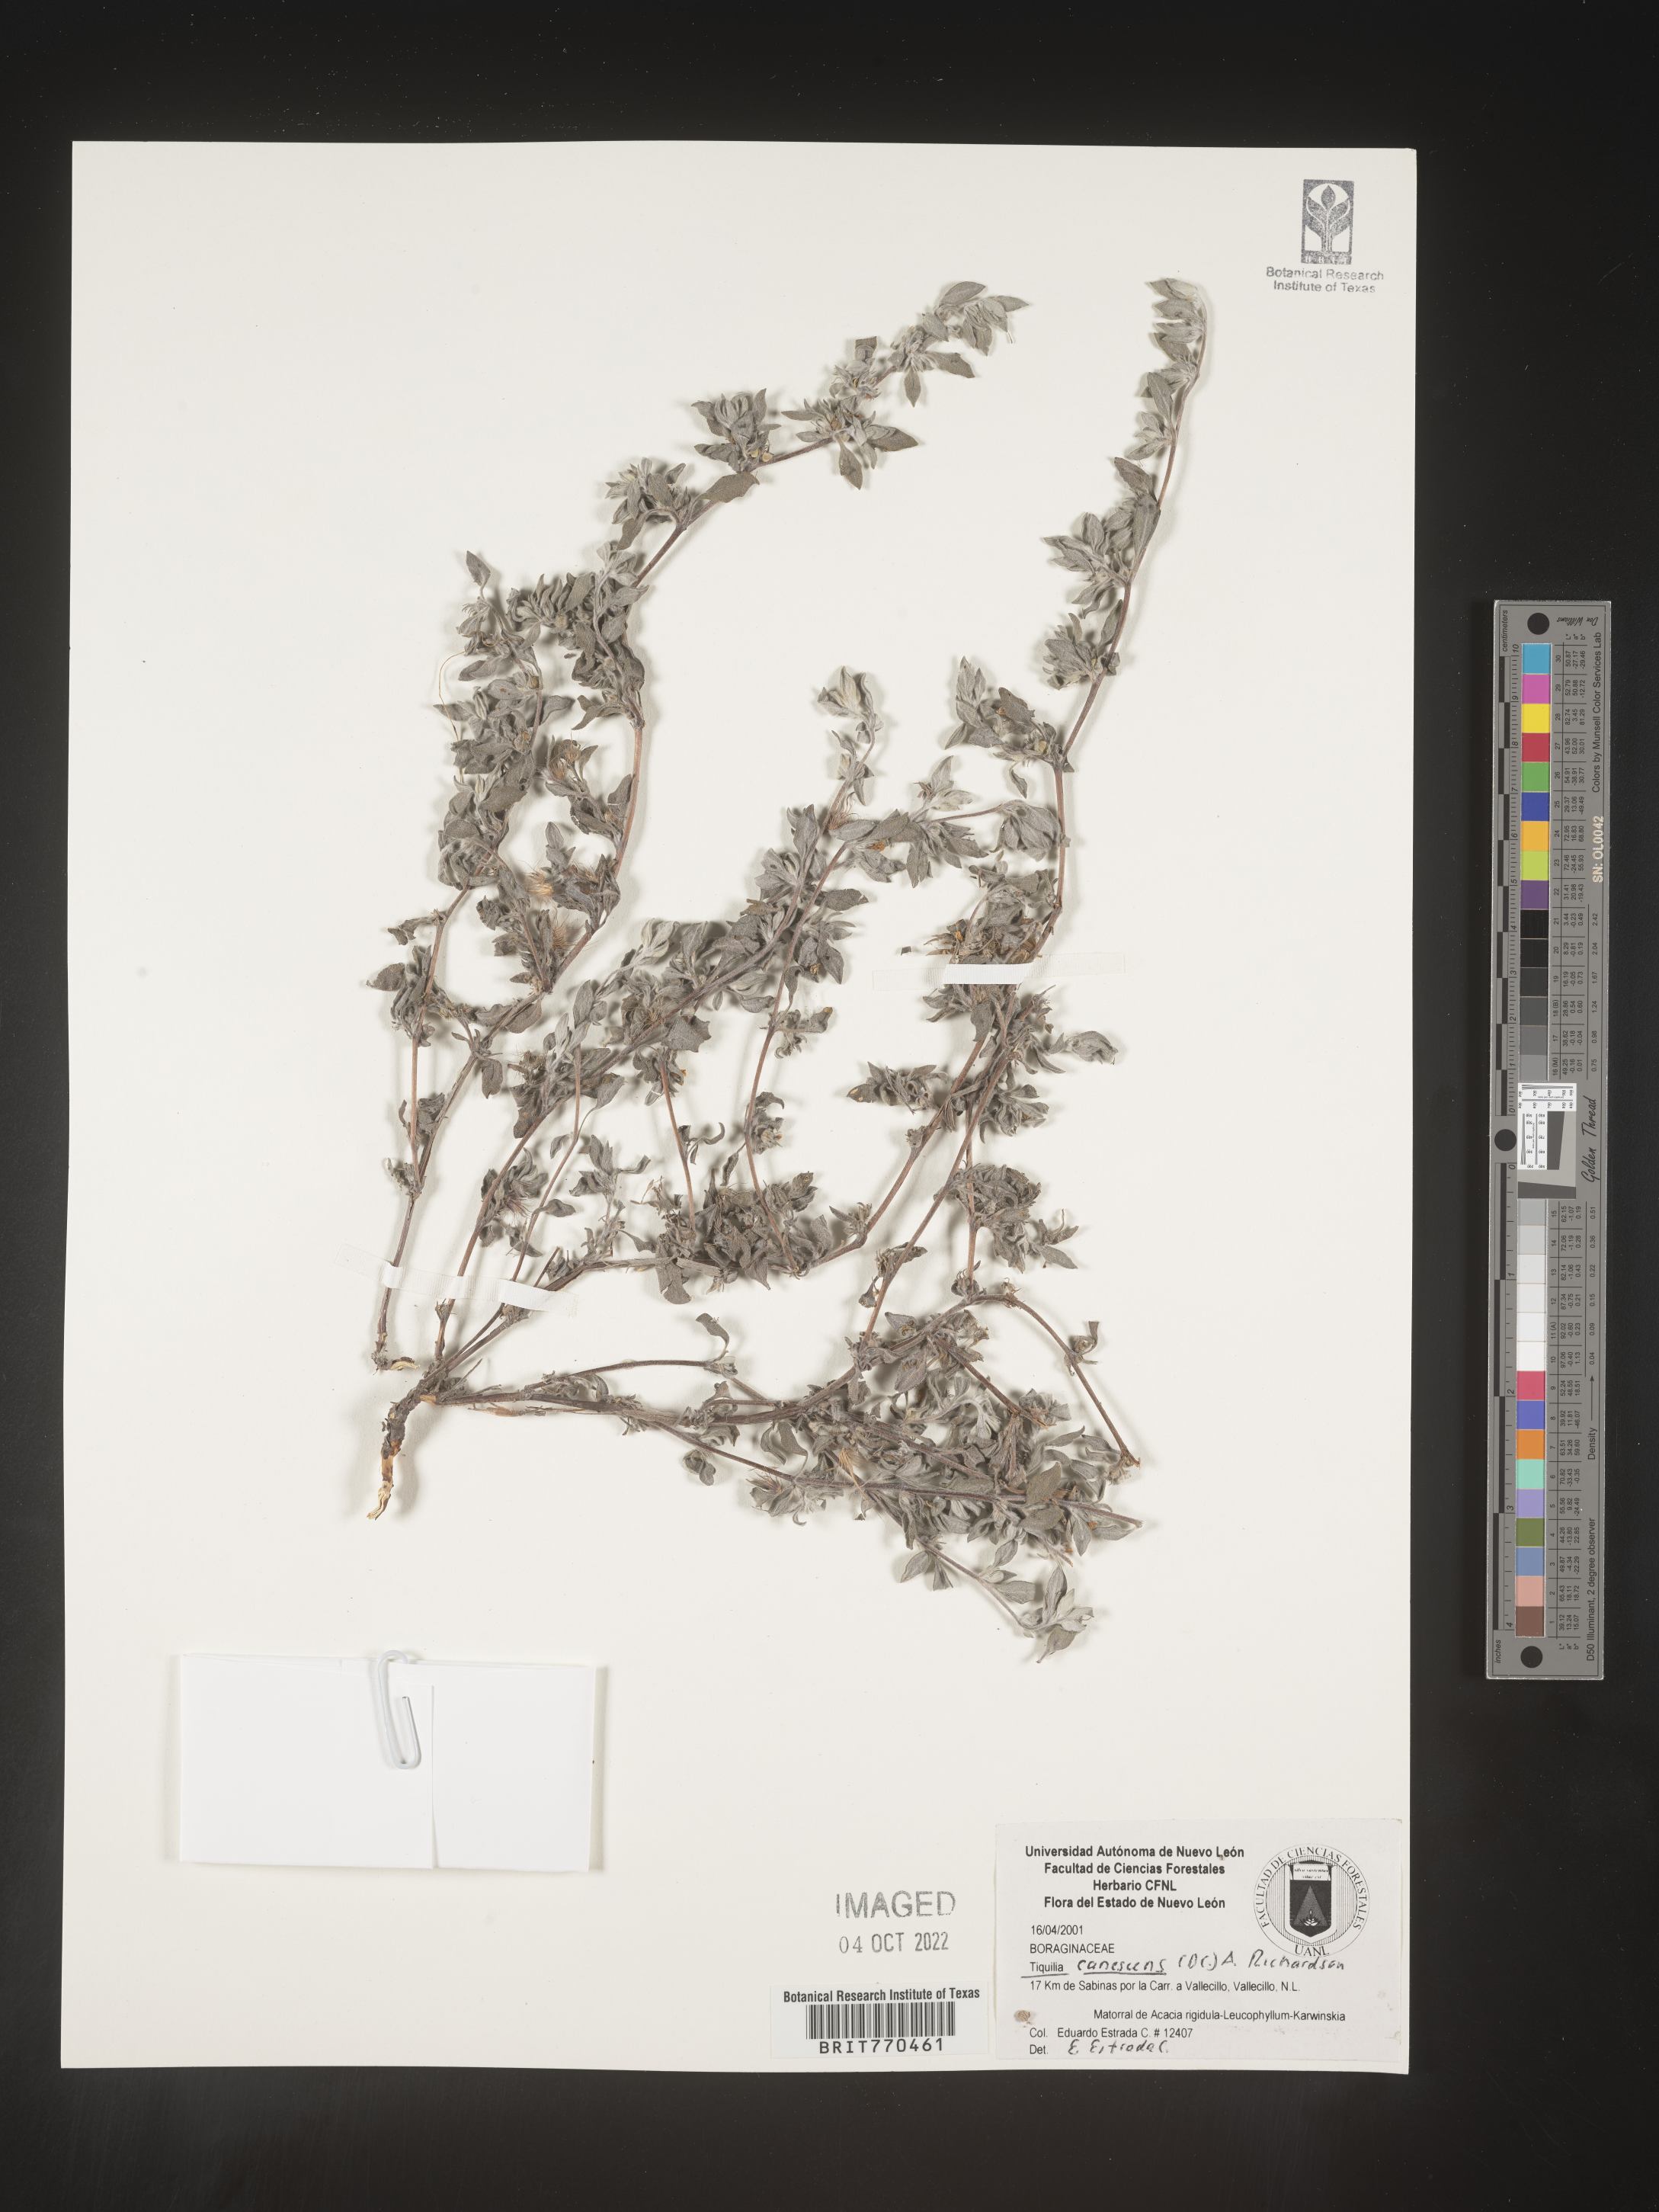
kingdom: Plantae
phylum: Tracheophyta
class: Magnoliopsida
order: Boraginales
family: Ehretiaceae
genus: Tiquilia
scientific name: Tiquilia
